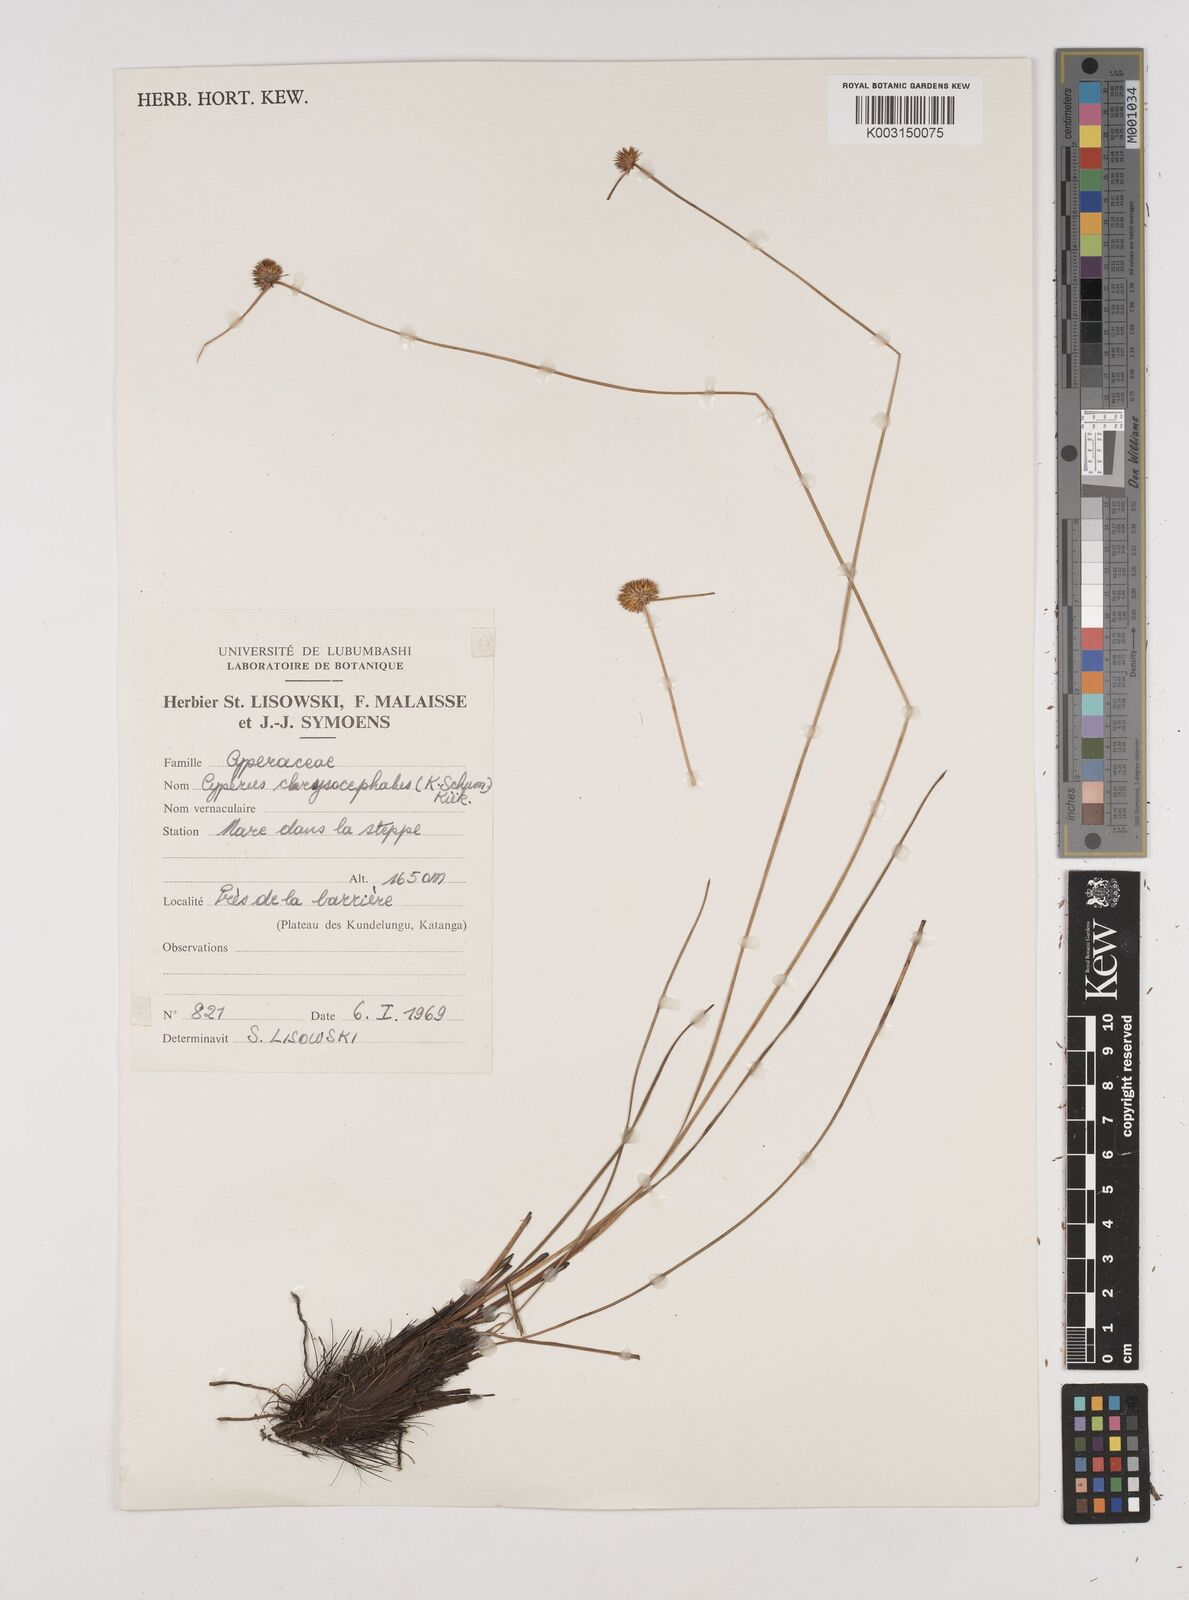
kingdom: Plantae
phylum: Tracheophyta
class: Liliopsida
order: Poales
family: Cyperaceae
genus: Cyperus
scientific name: Cyperus chrysocephalus
